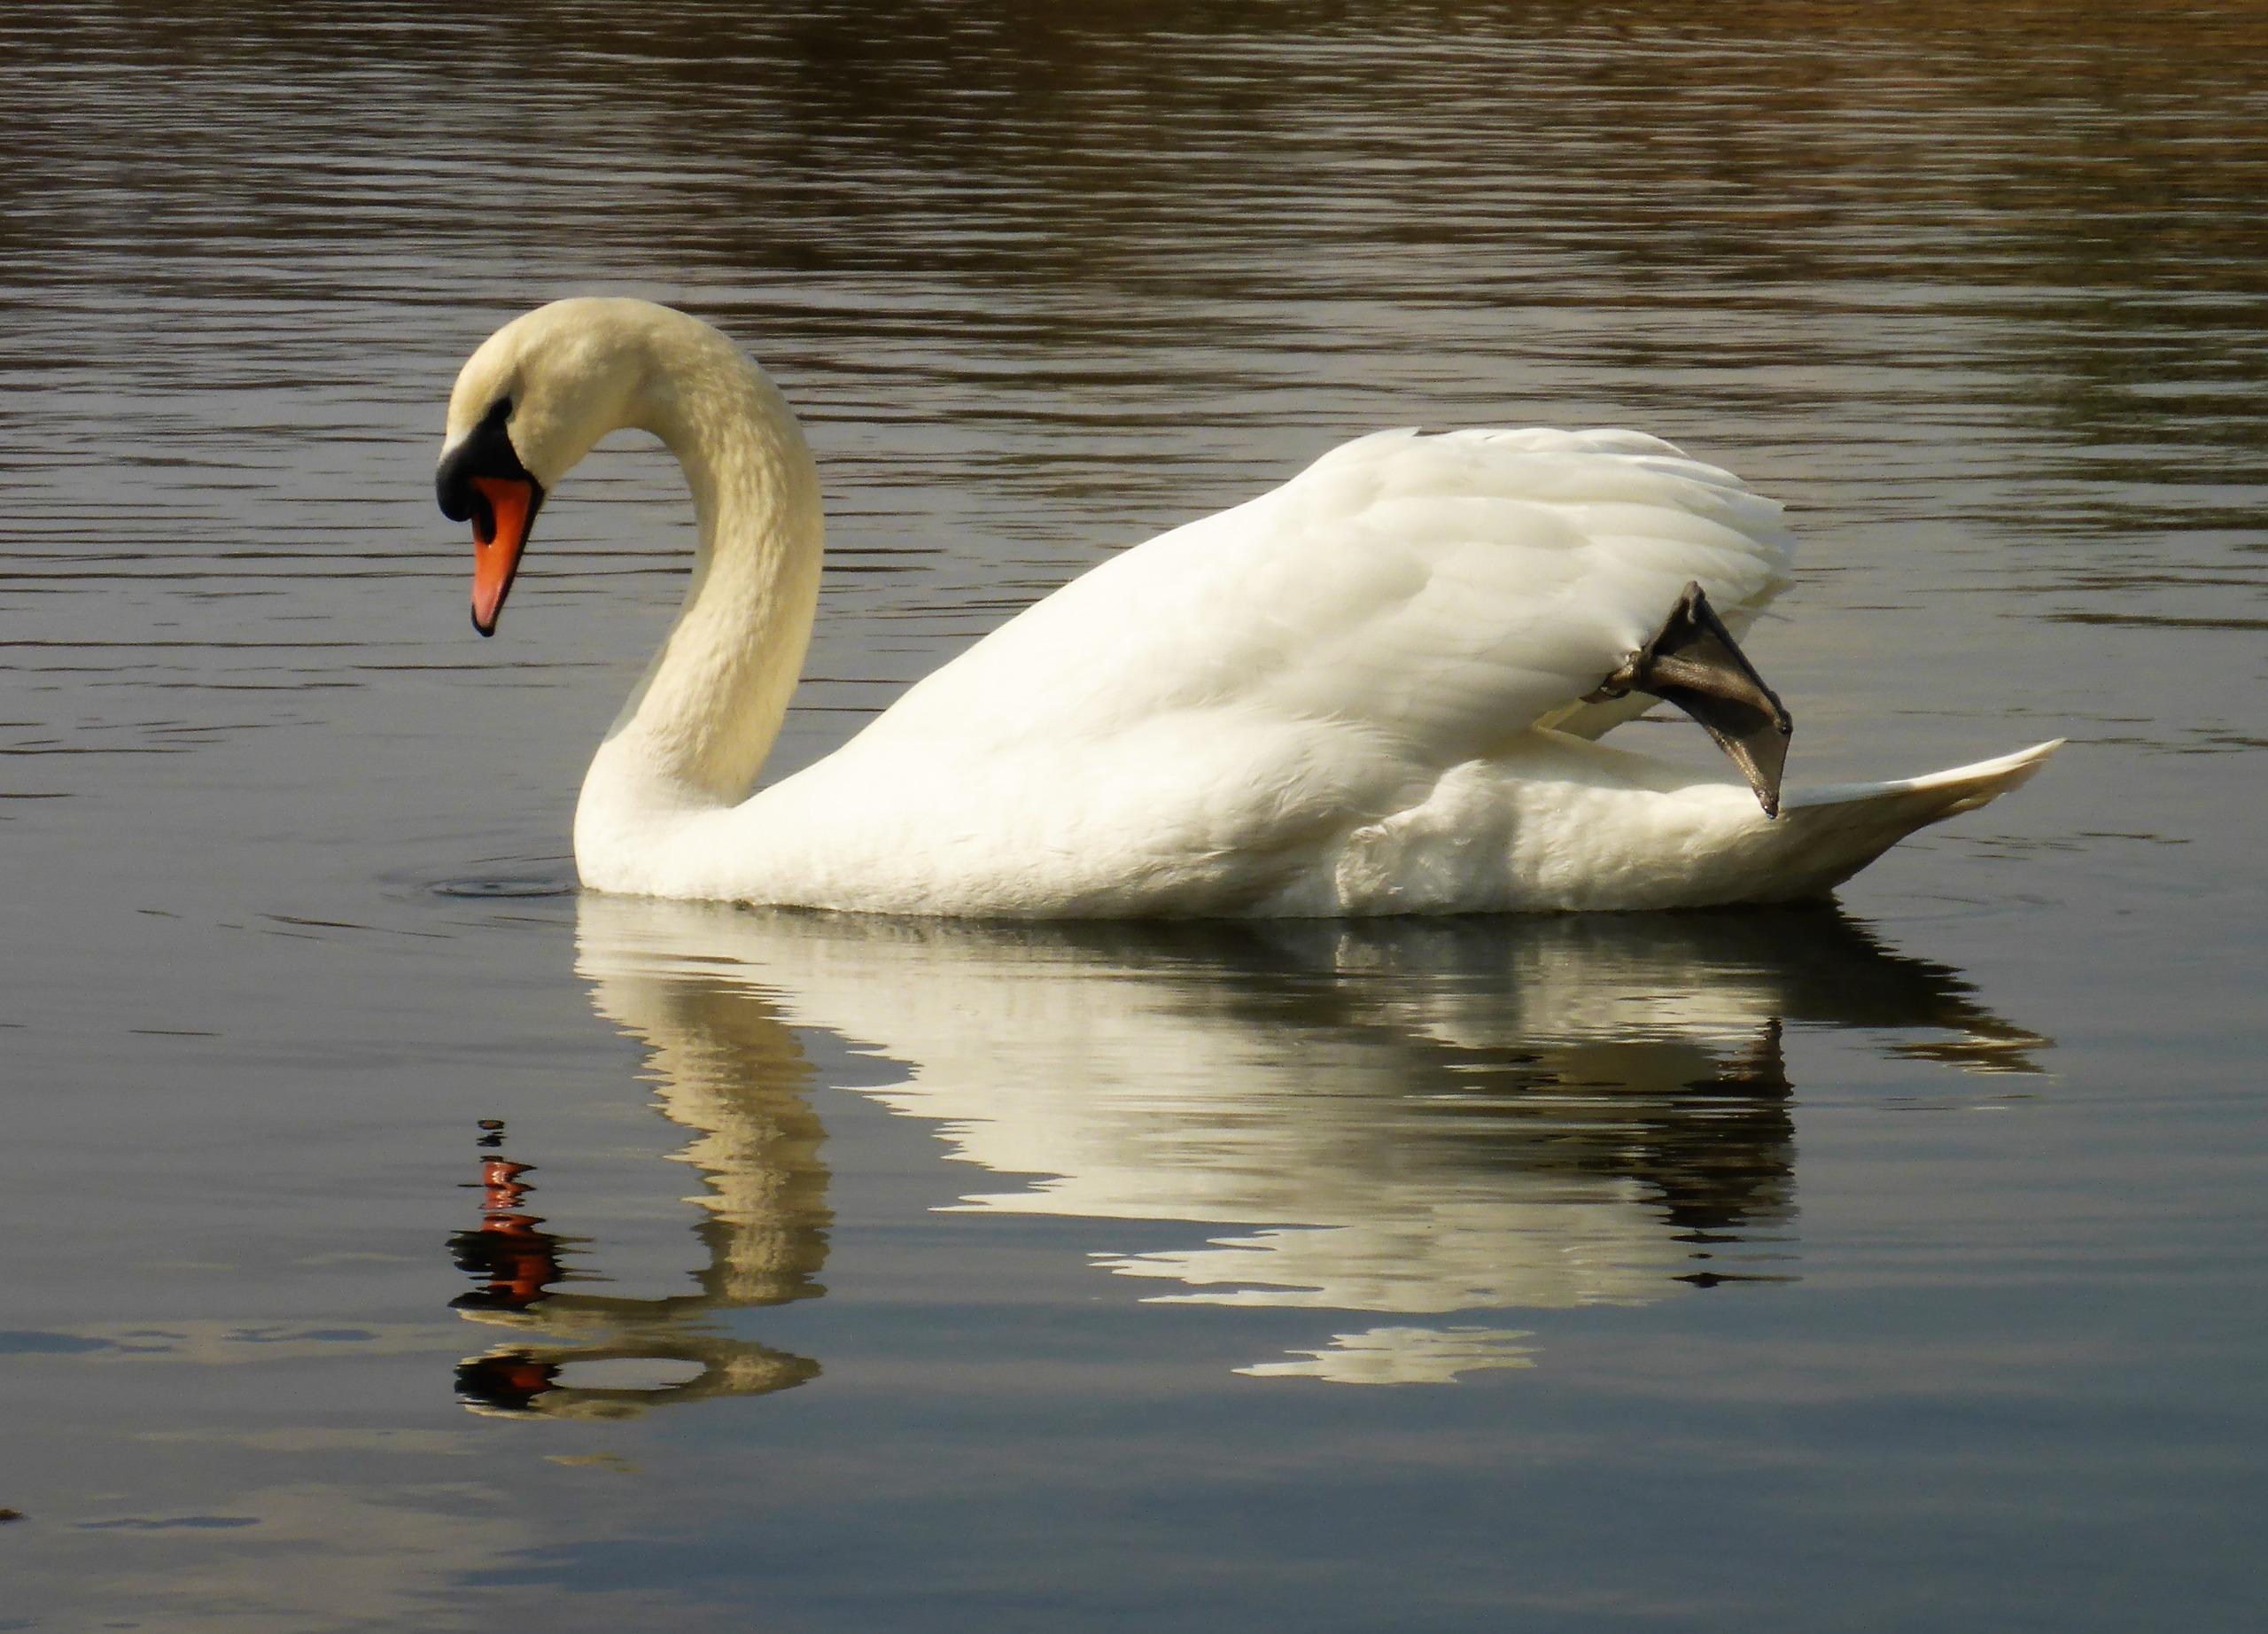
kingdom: Animalia
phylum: Chordata
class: Aves
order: Anseriformes
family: Anatidae
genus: Cygnus
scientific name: Cygnus olor
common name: Knopsvane
